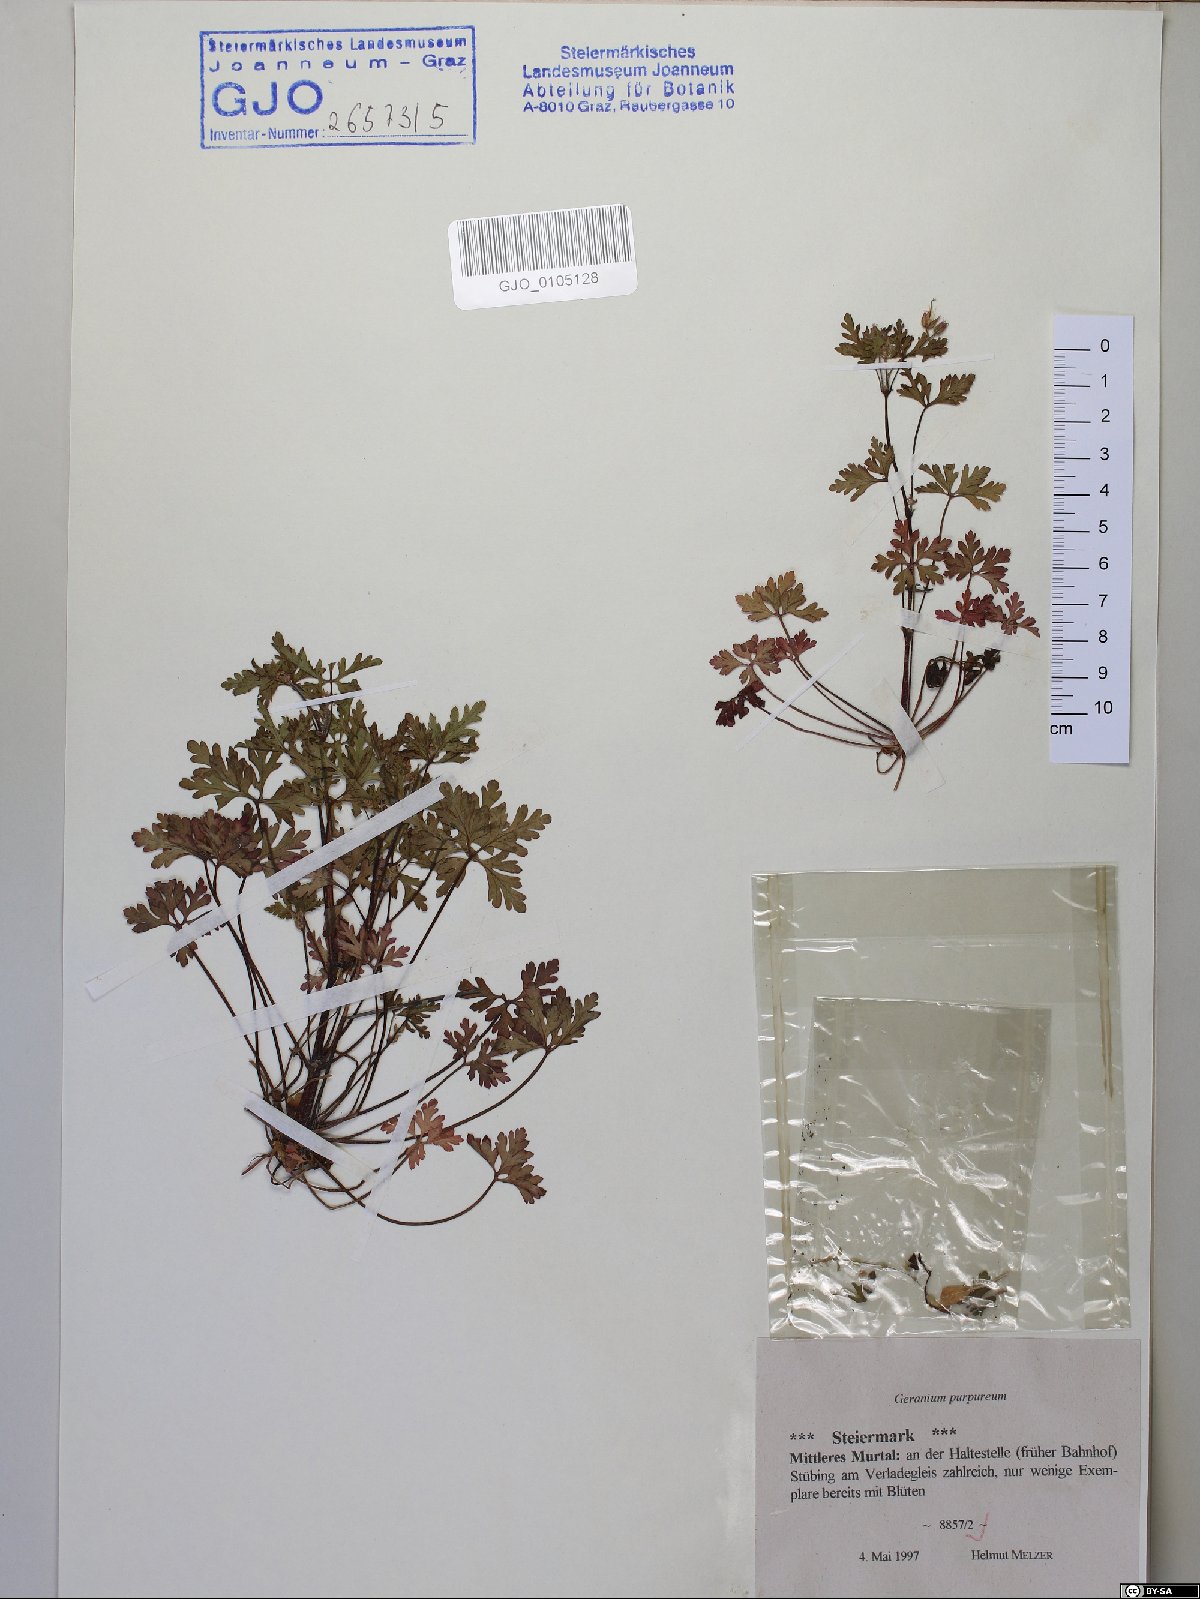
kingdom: Plantae
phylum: Tracheophyta
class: Magnoliopsida
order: Geraniales
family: Geraniaceae
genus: Geranium
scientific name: Geranium purpureum
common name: Little-robin
